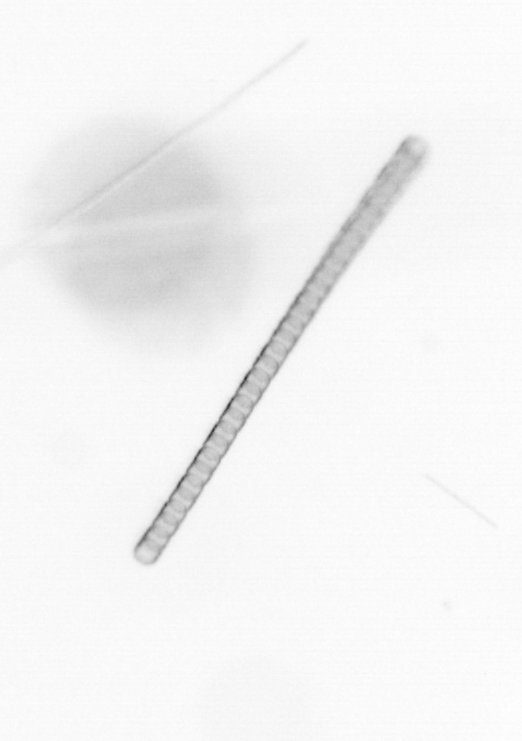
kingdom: Chromista
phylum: Ochrophyta
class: Bacillariophyceae
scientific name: Bacillariophyceae
